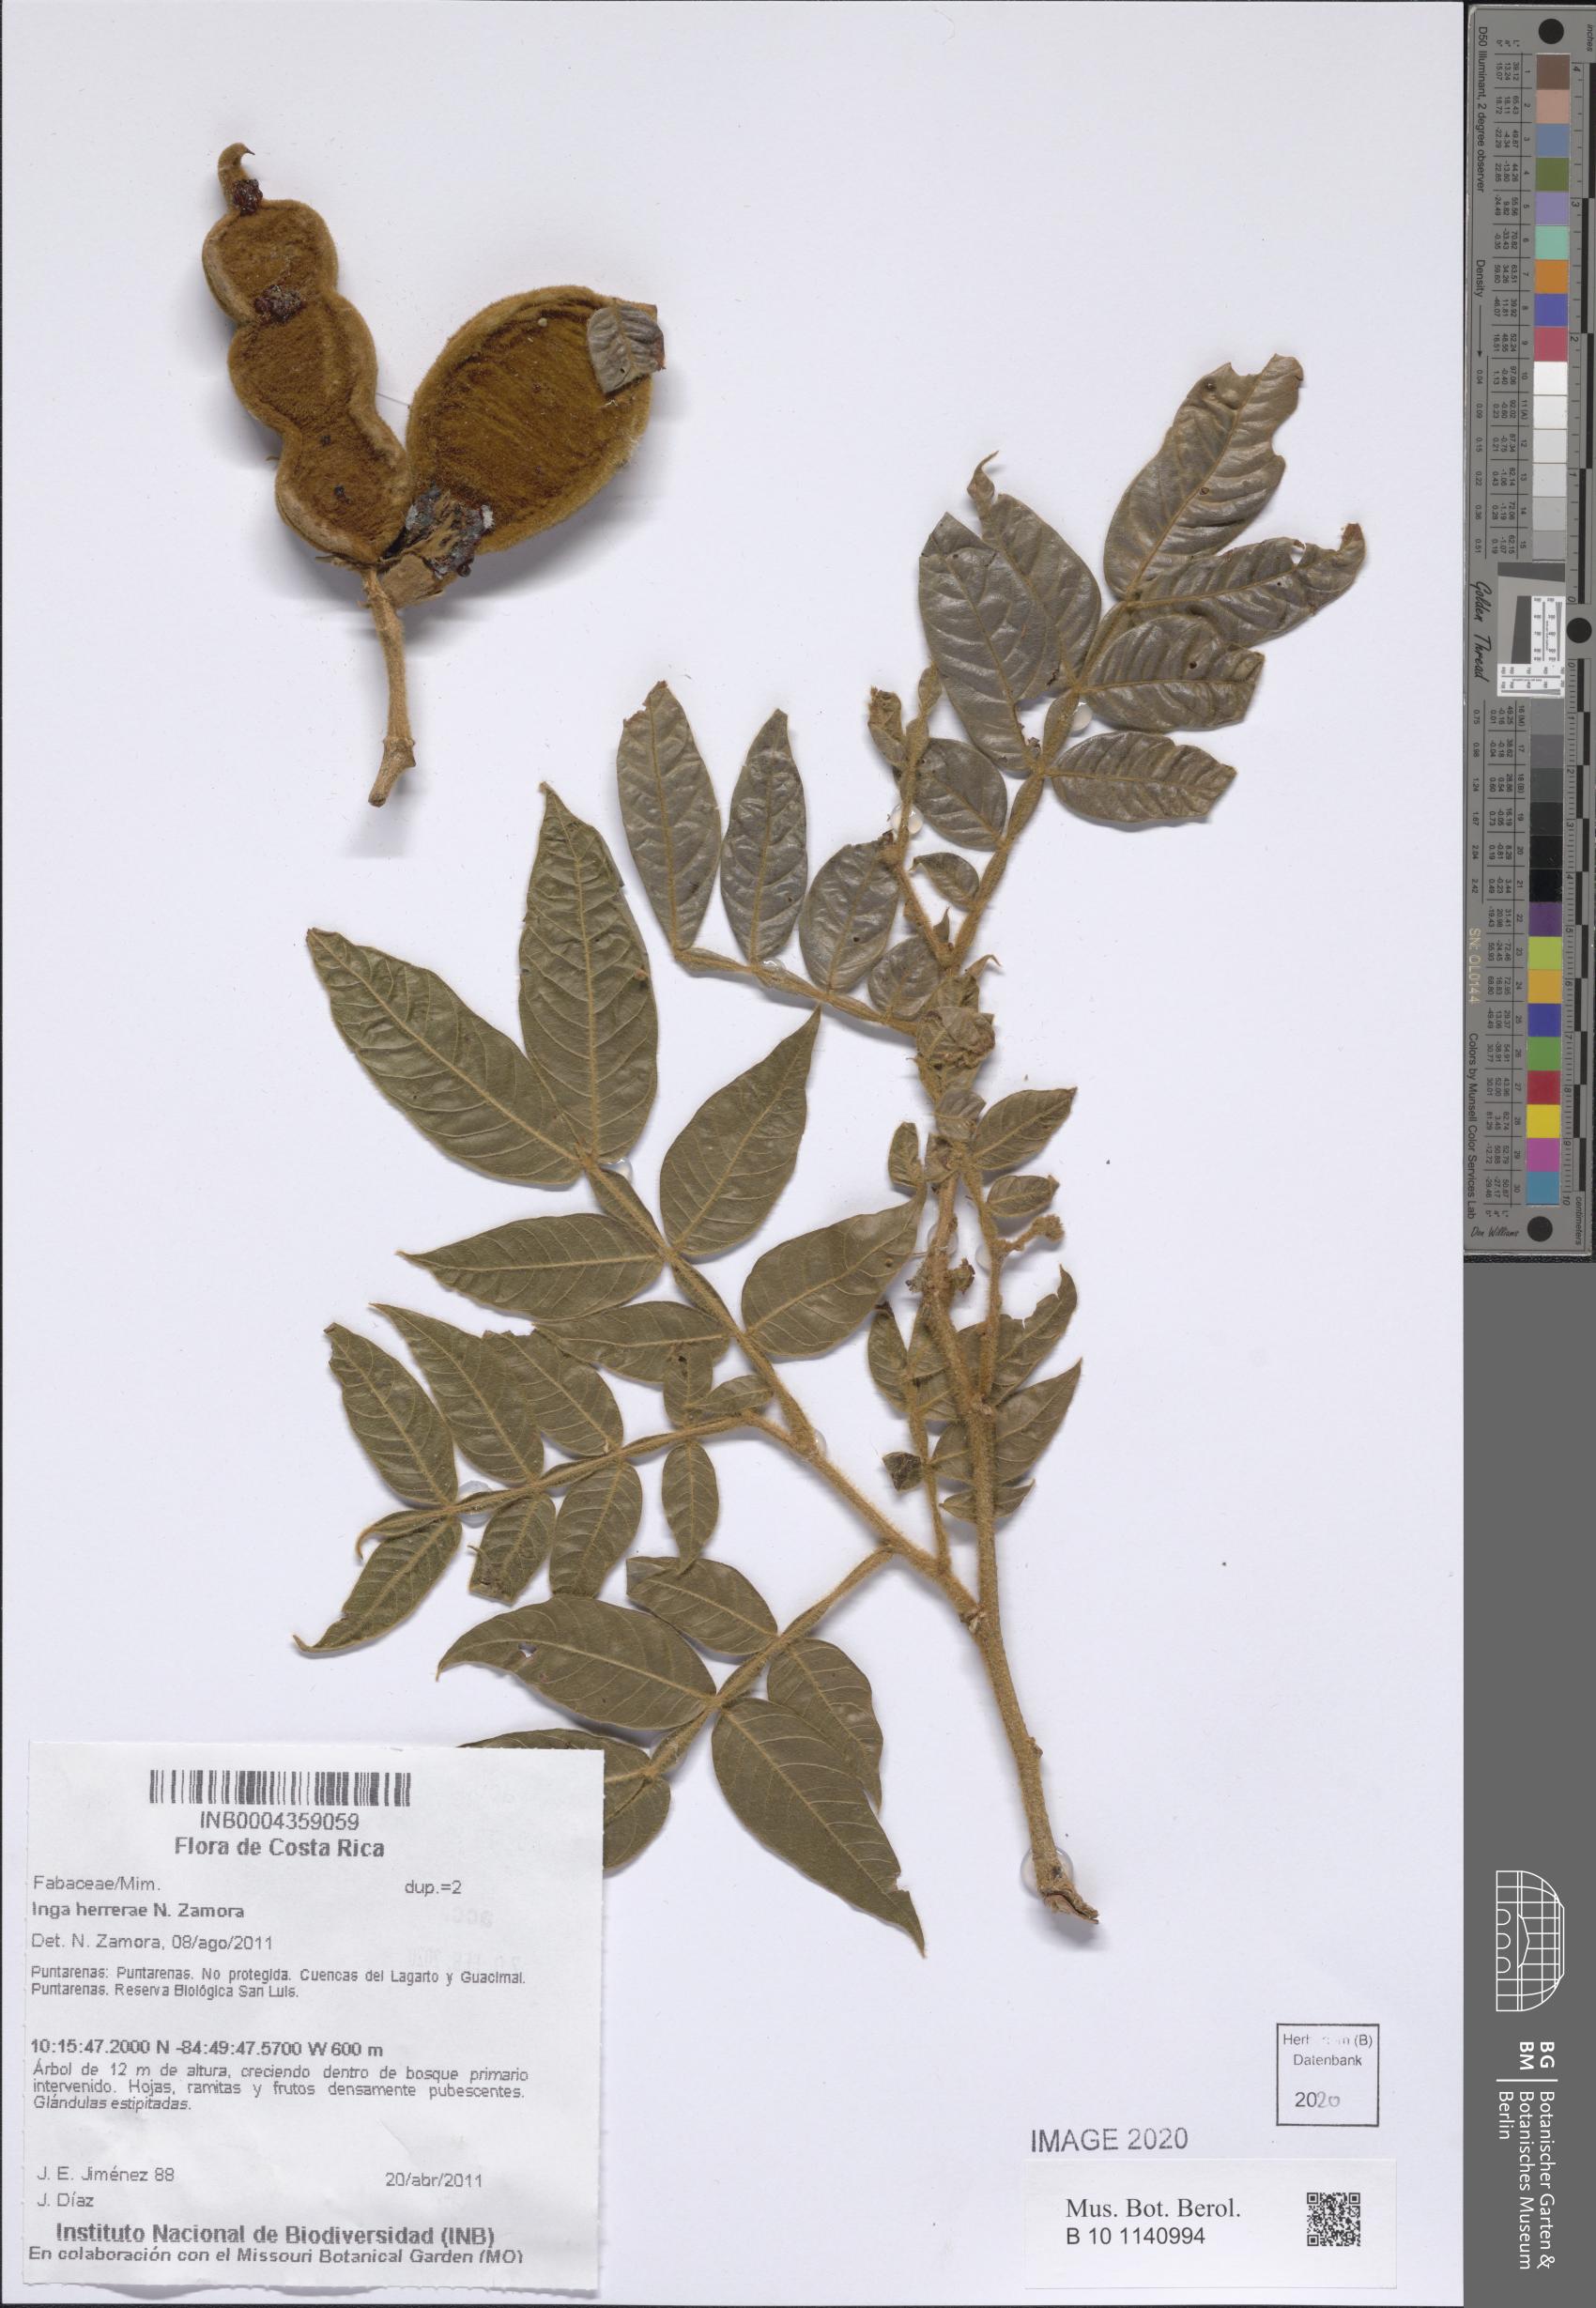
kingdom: Plantae
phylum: Tracheophyta
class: Magnoliopsida
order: Fabales
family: Fabaceae
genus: Inga
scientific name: Inga herrerae
